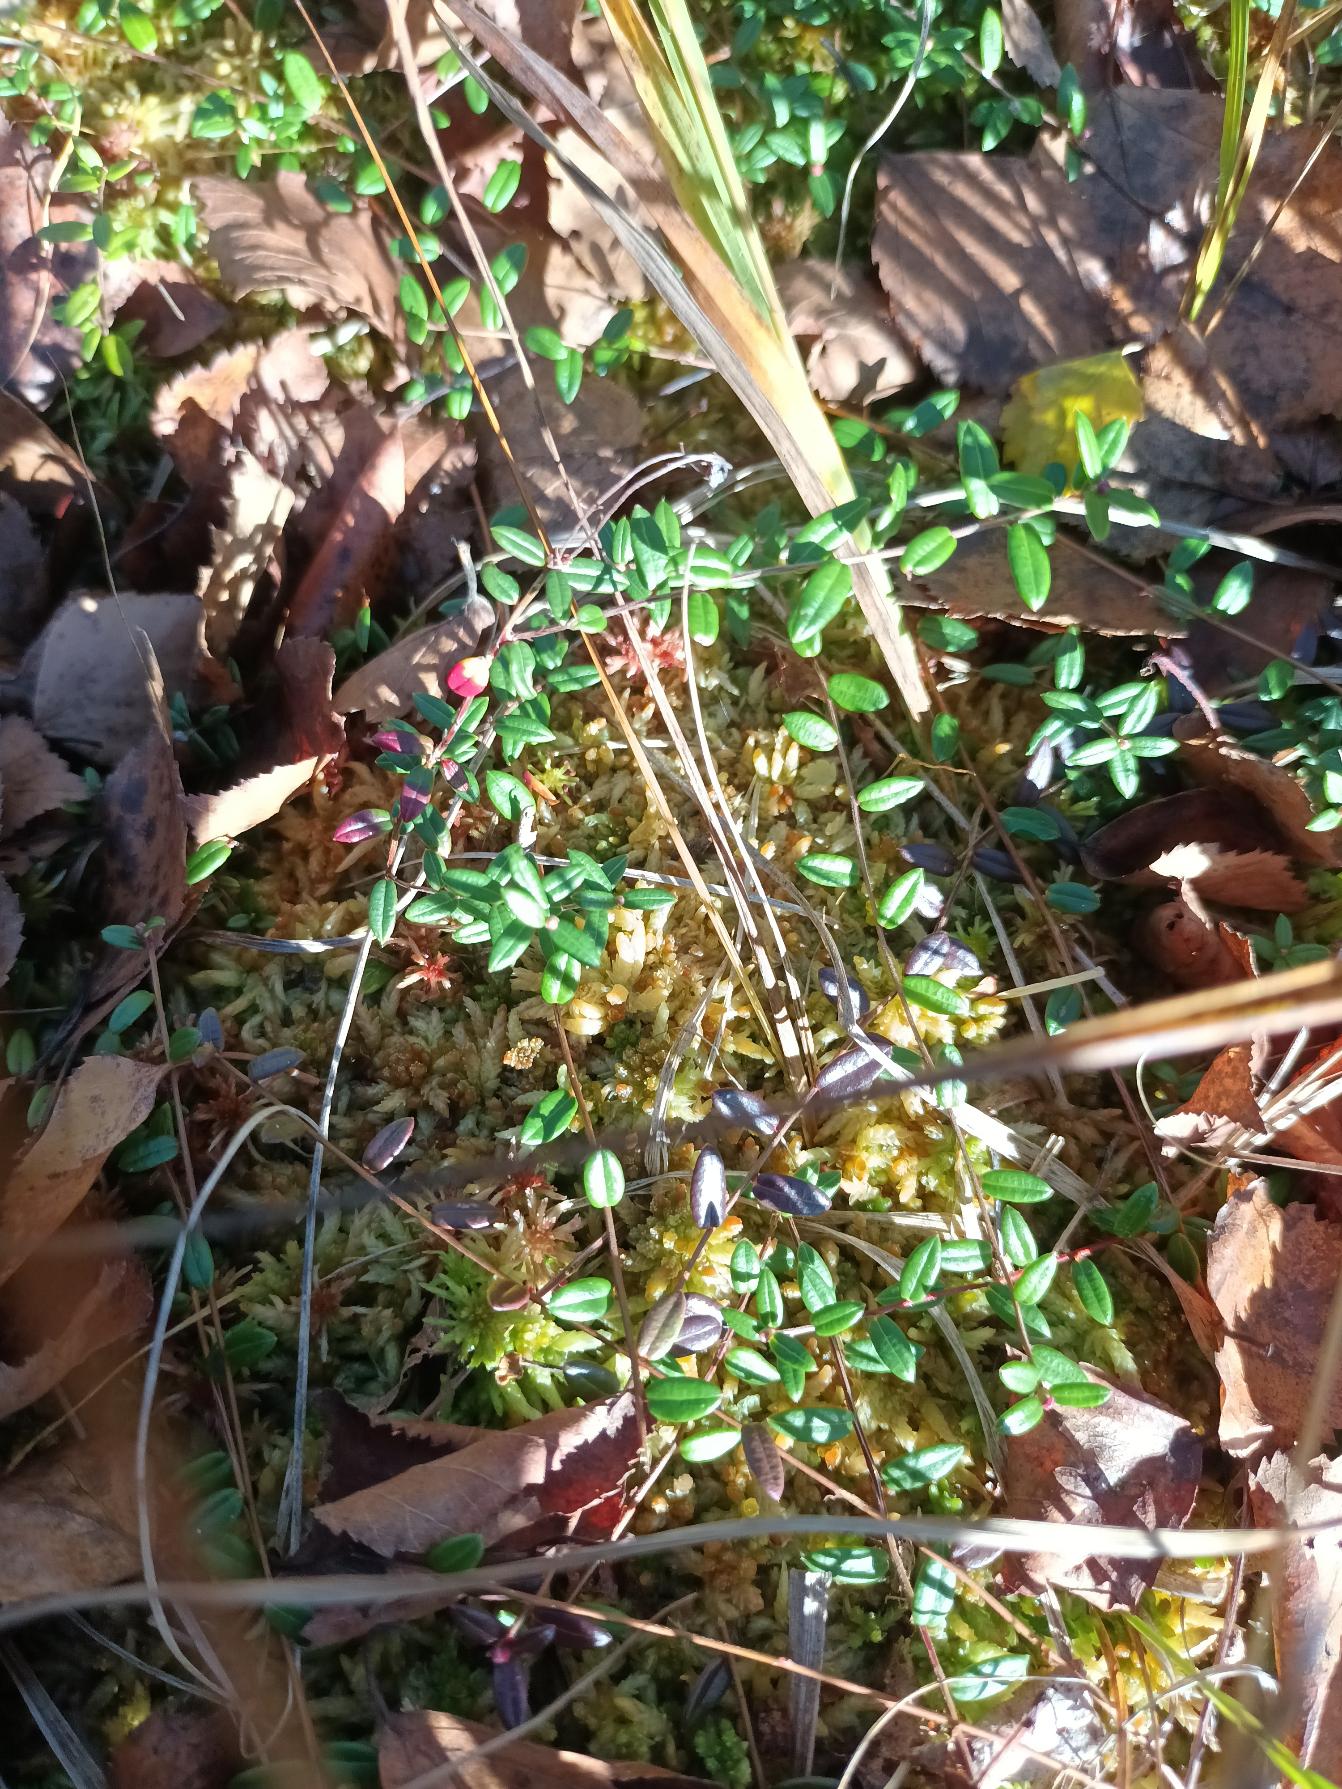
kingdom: Plantae
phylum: Tracheophyta
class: Magnoliopsida
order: Ericales
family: Ericaceae
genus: Vaccinium
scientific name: Vaccinium oxycoccos
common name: Tranebær
